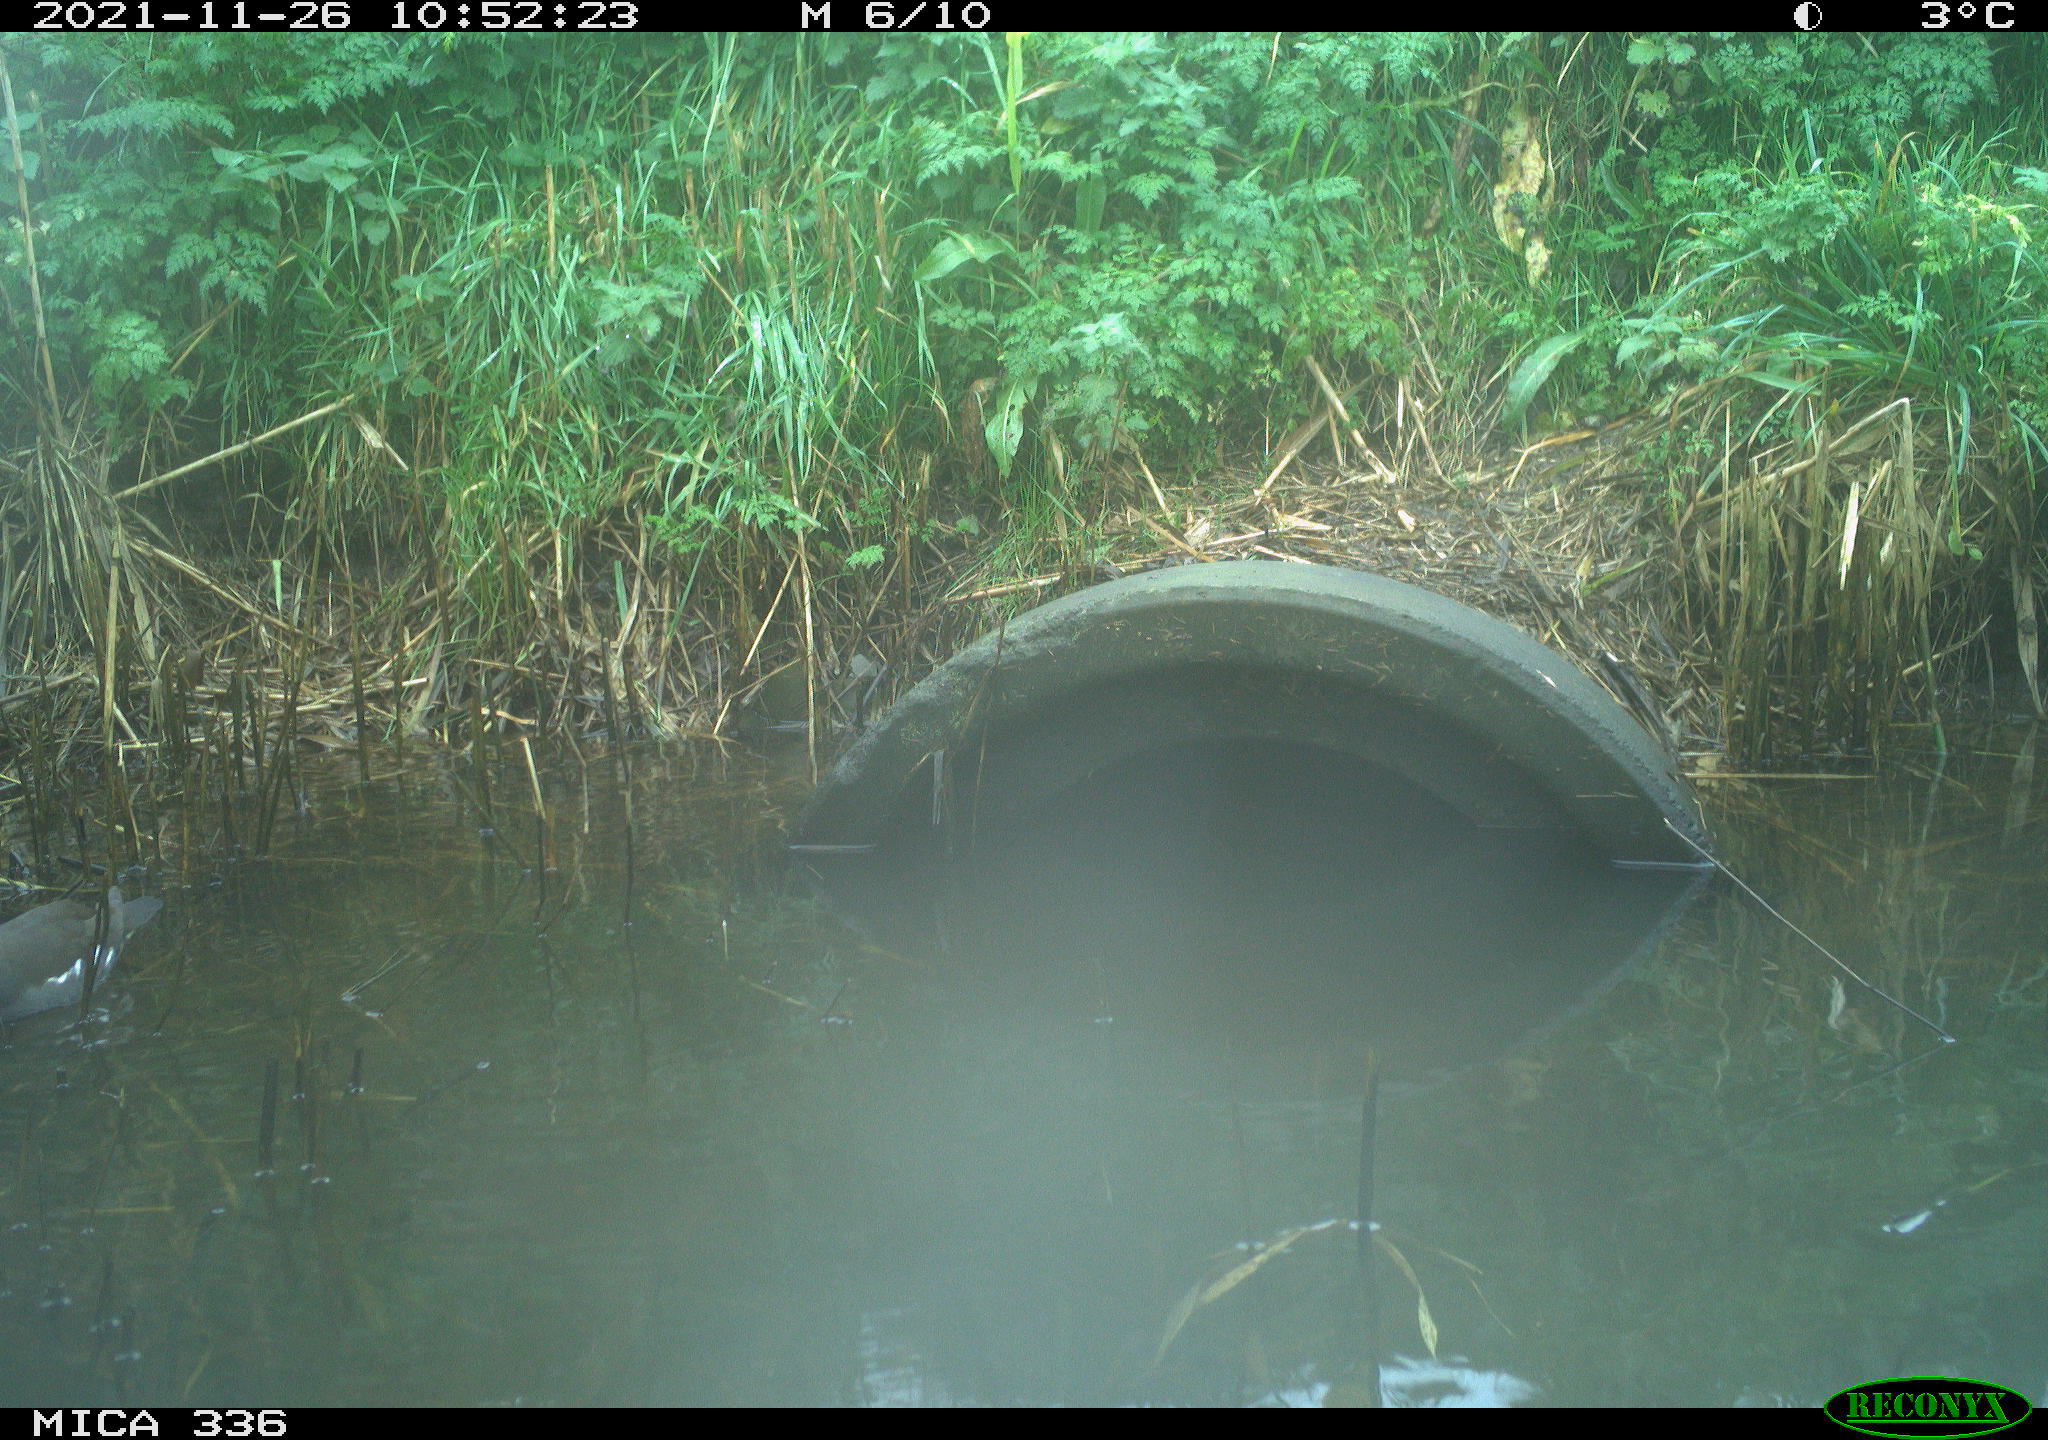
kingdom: Animalia
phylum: Chordata
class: Aves
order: Gruiformes
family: Rallidae
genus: Gallinula
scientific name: Gallinula chloropus
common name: Common moorhen
